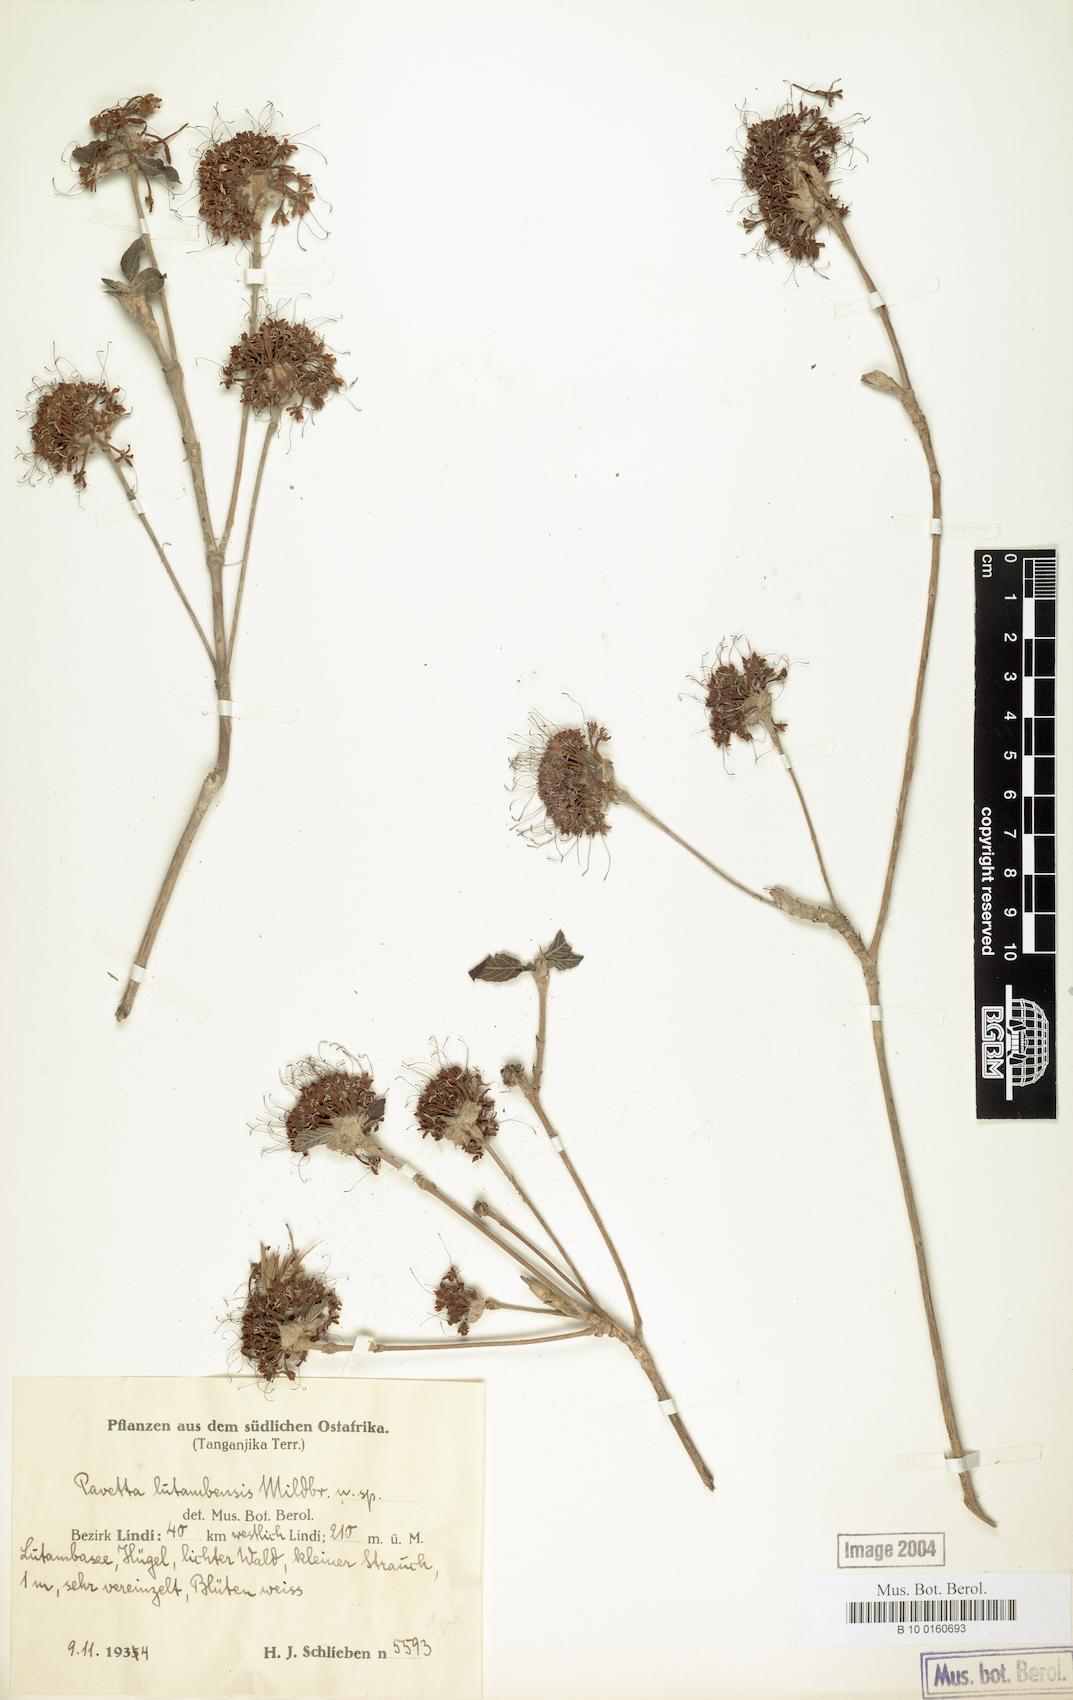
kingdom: Plantae
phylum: Tracheophyta
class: Magnoliopsida
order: Gentianales
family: Rubiaceae
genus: Pavetta
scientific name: Pavetta lutambensis
